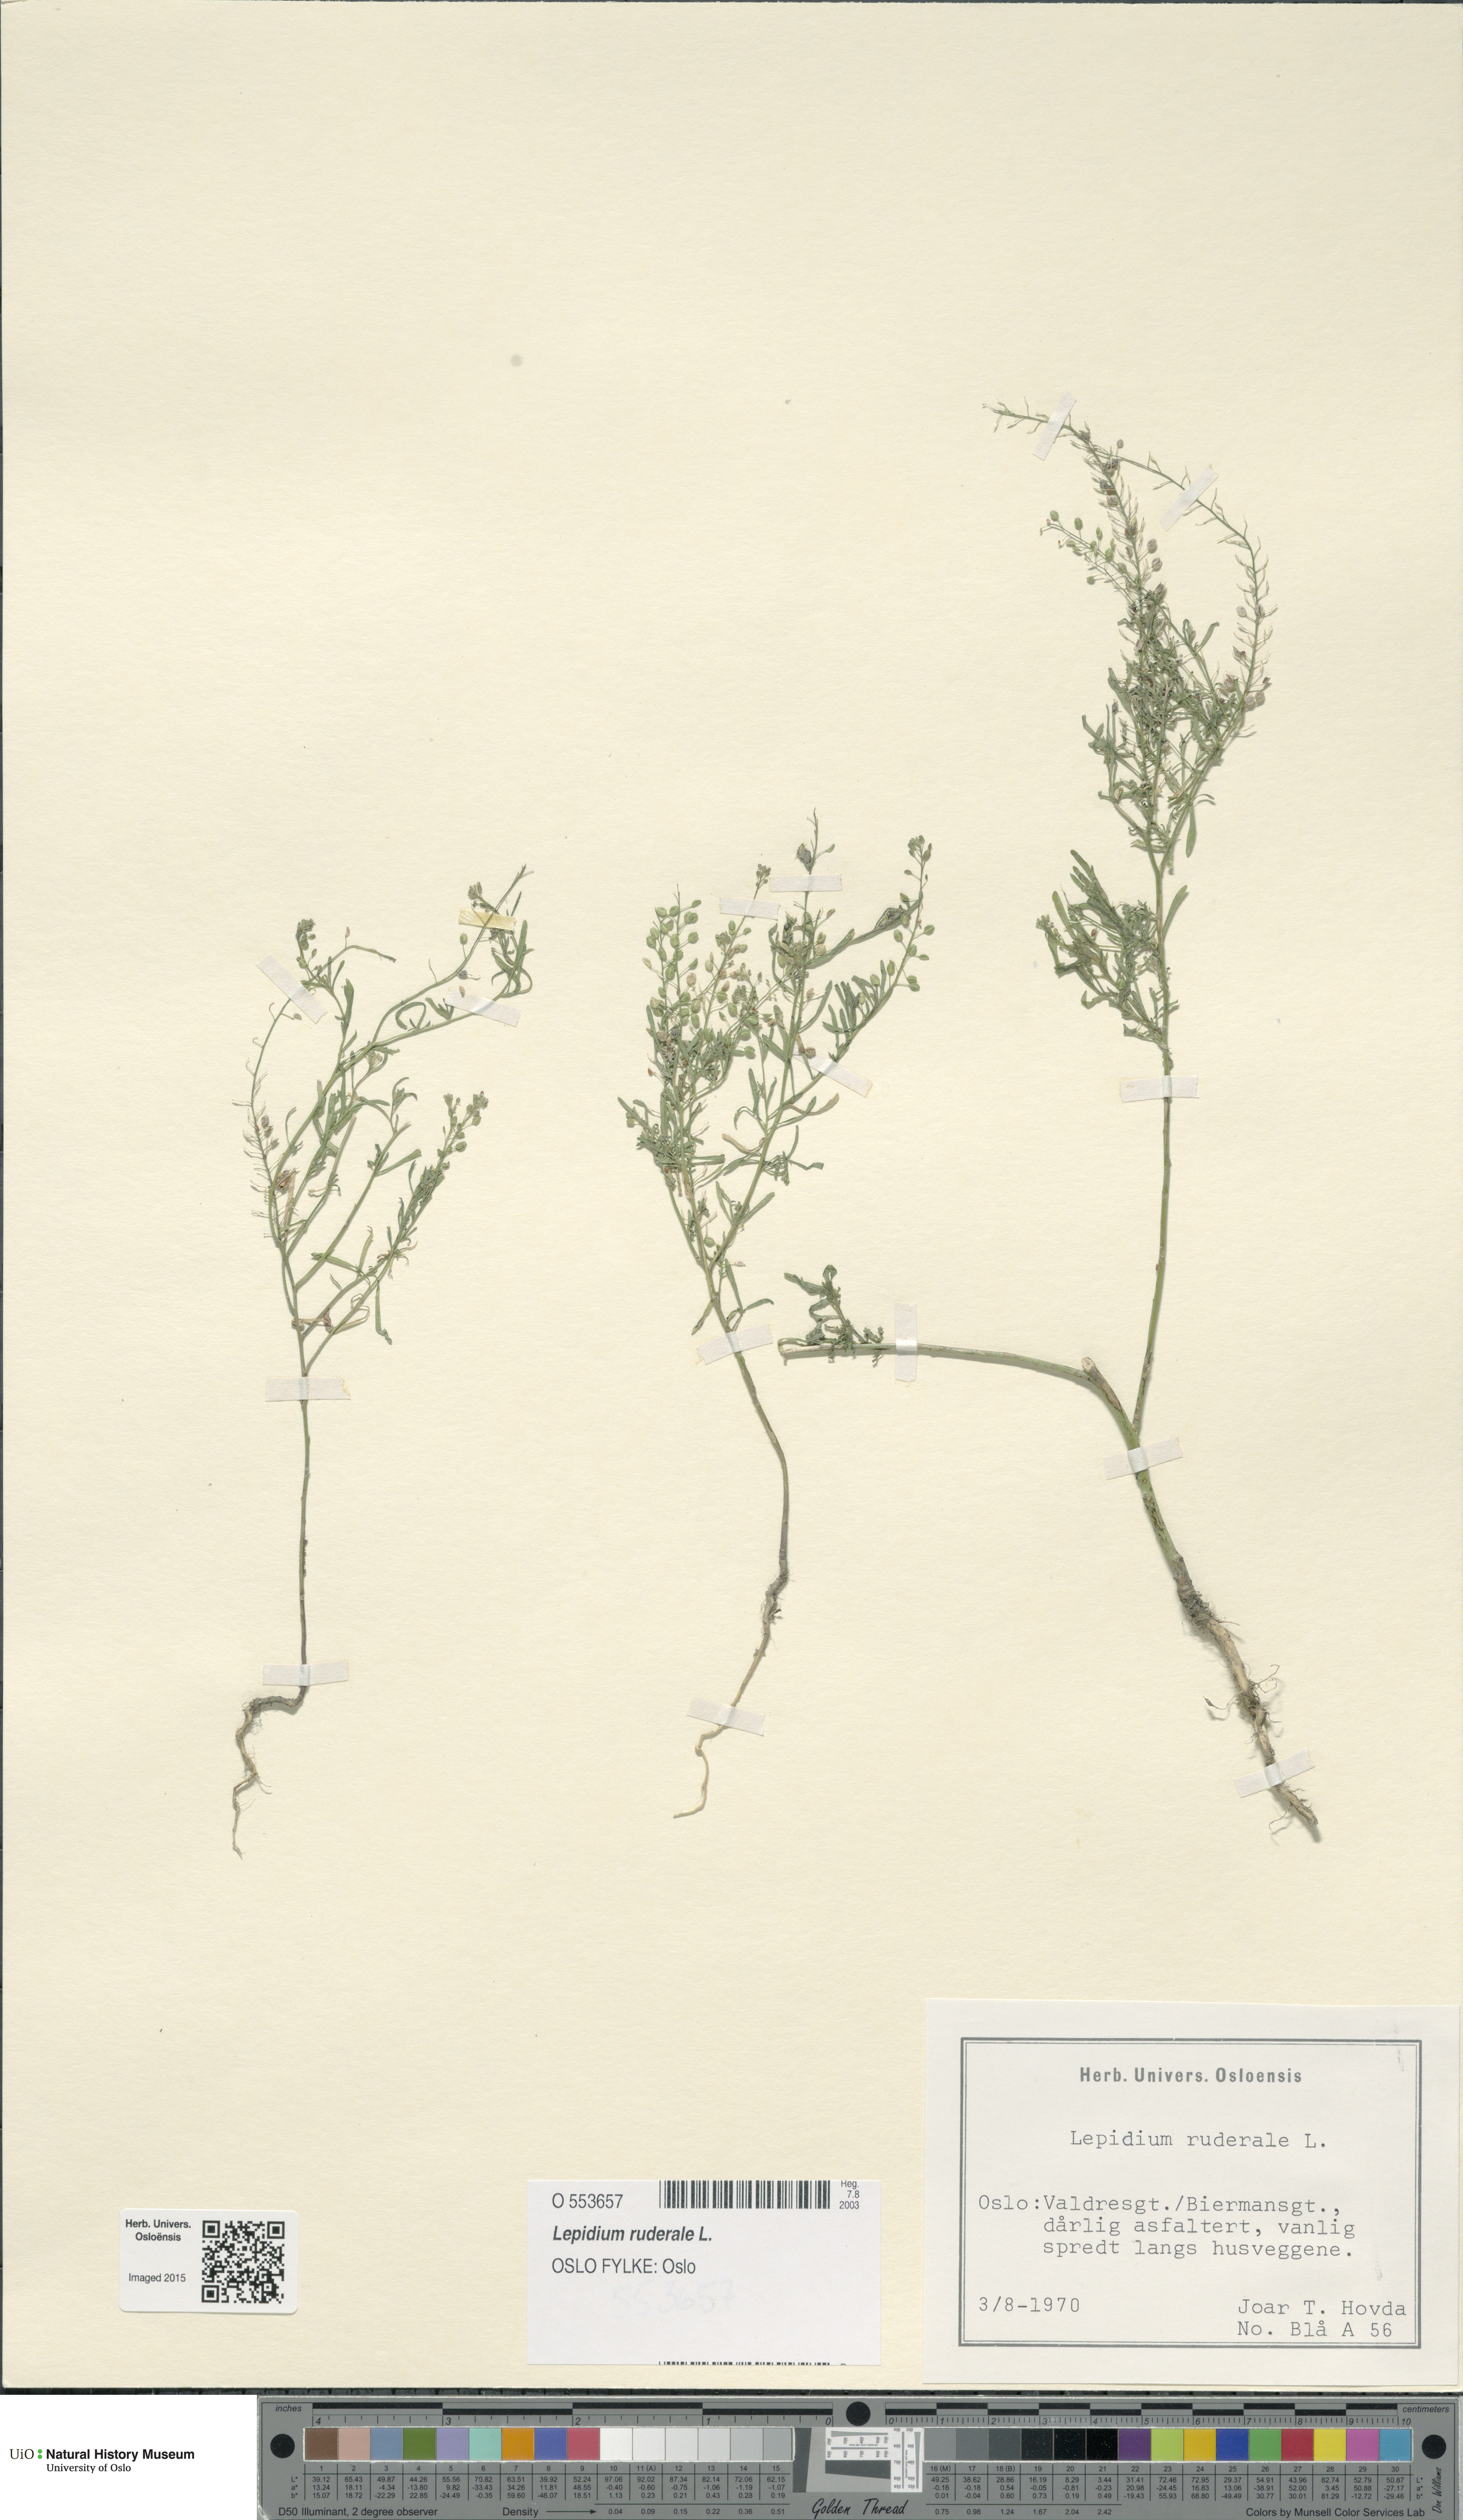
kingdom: Plantae
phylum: Tracheophyta
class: Magnoliopsida
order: Brassicales
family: Brassicaceae
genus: Lepidium
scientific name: Lepidium ruderale
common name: Narrow-leaved pepperwort
